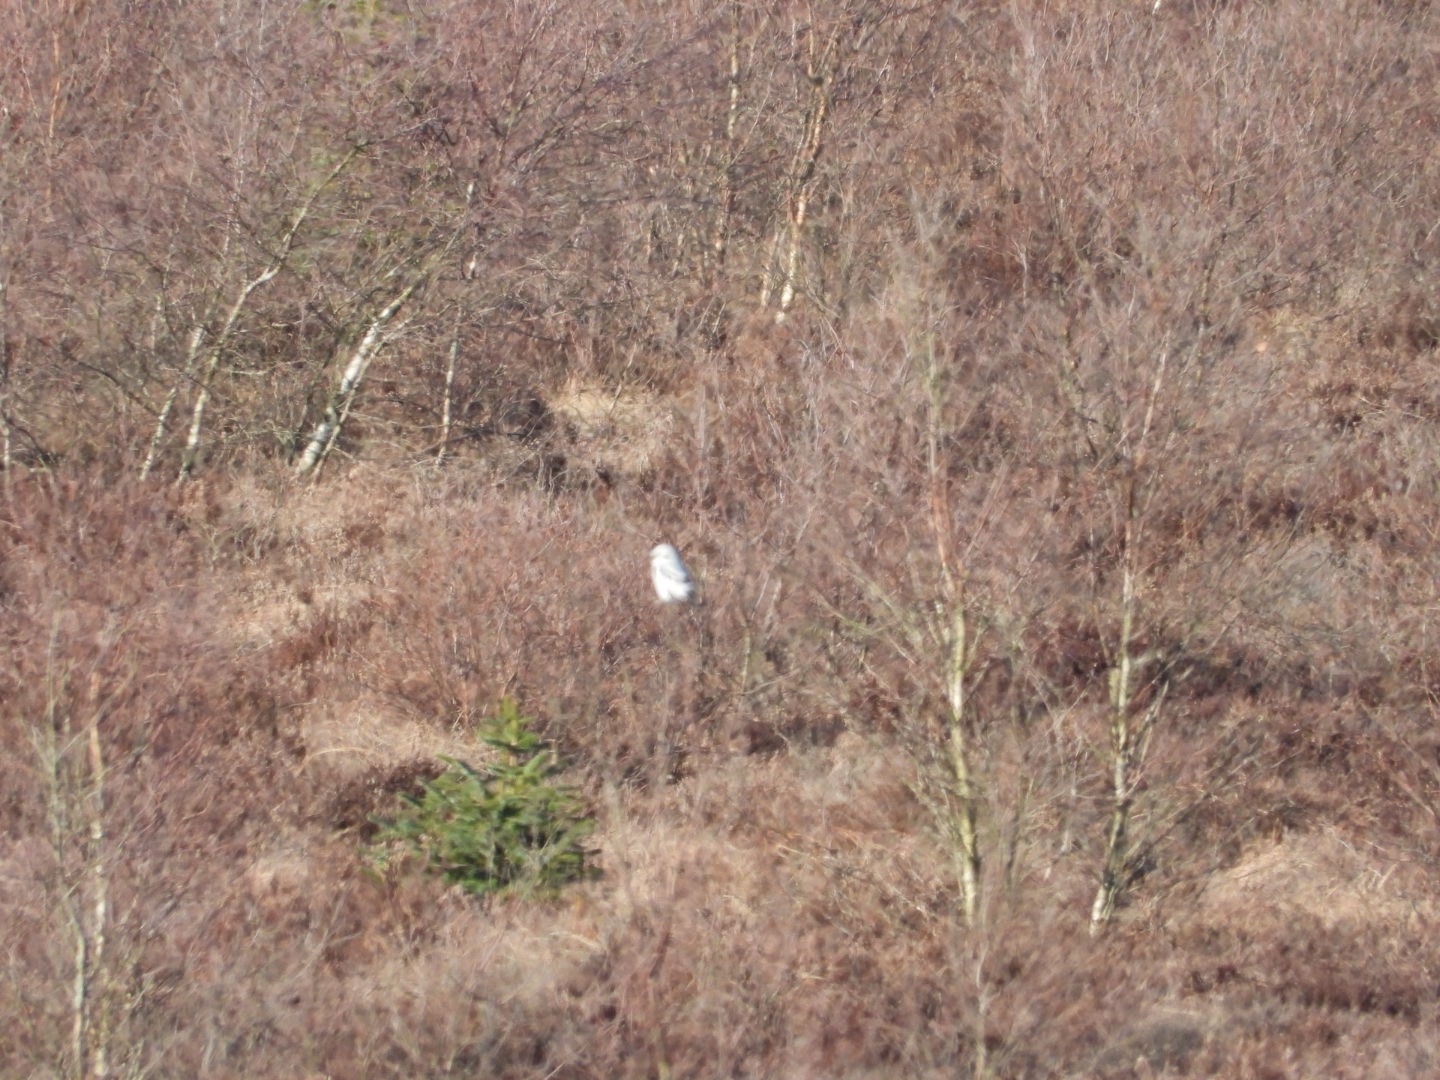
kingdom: Animalia
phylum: Chordata
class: Aves
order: Passeriformes
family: Laniidae
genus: Lanius
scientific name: Lanius excubitor
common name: Stor tornskade
